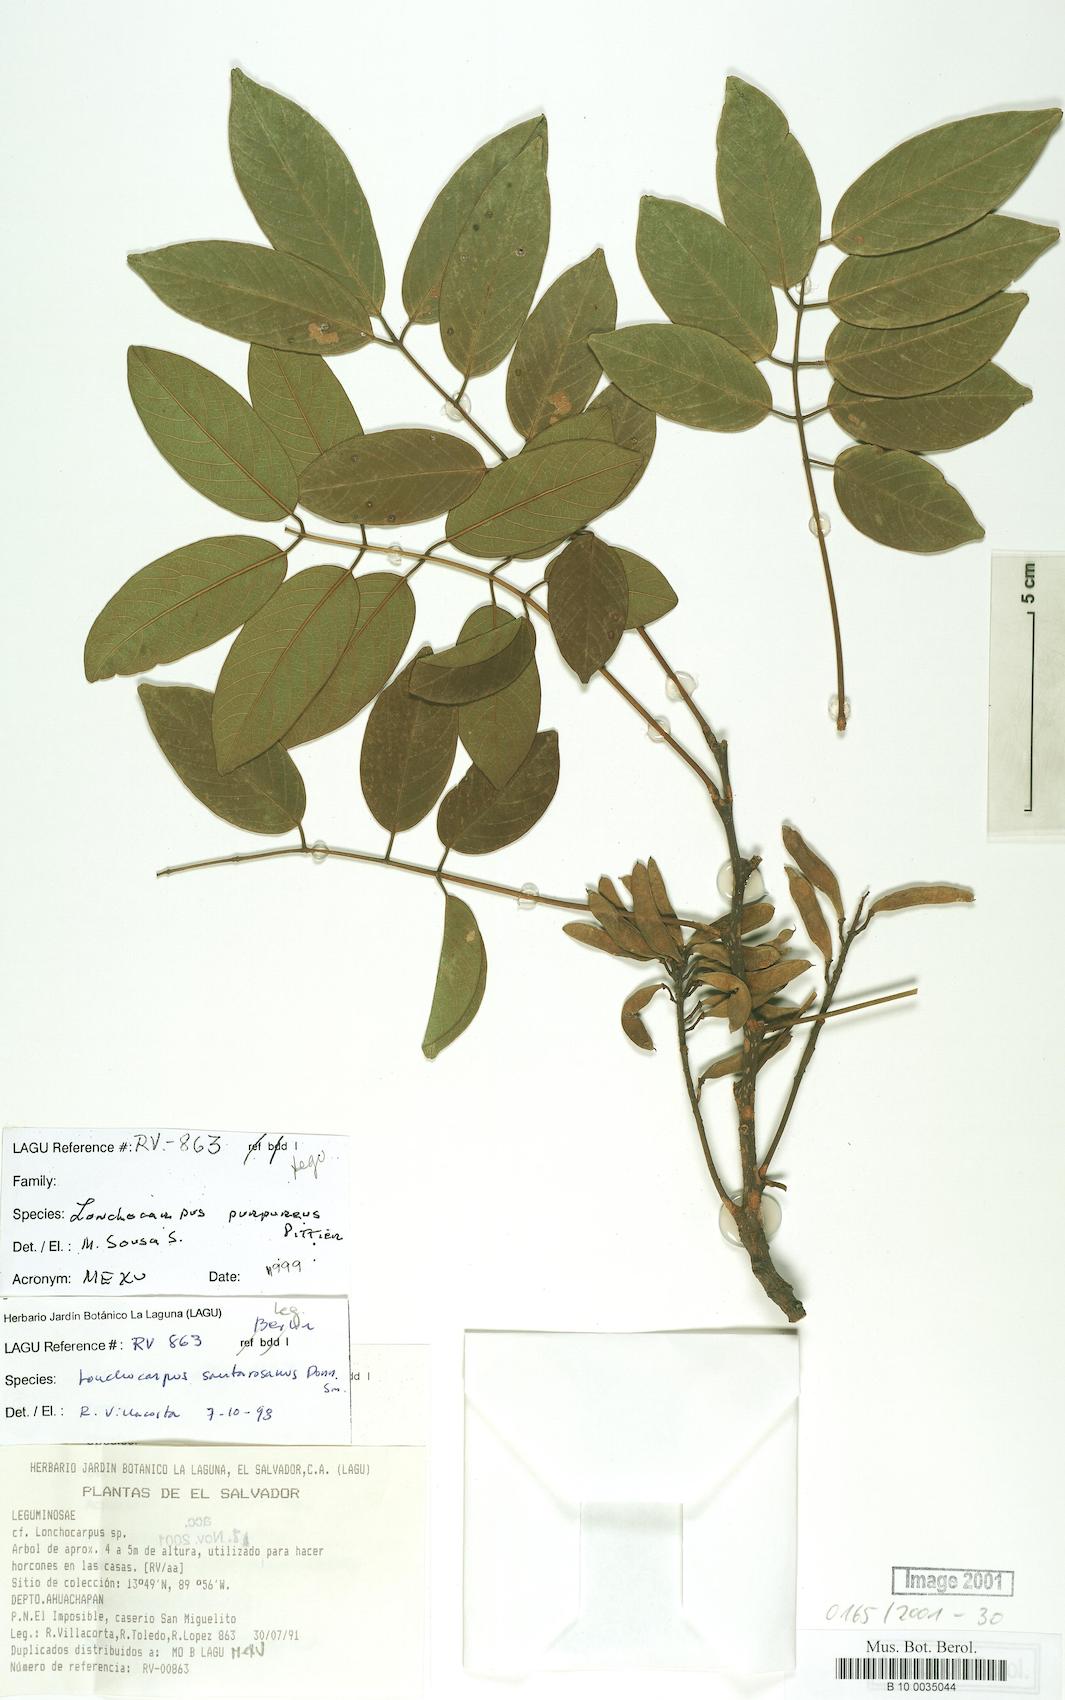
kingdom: Plantae
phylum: Tracheophyta
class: Magnoliopsida
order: Fabales
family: Fabaceae
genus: Lonchocarpus
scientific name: Lonchocarpus purpureus
